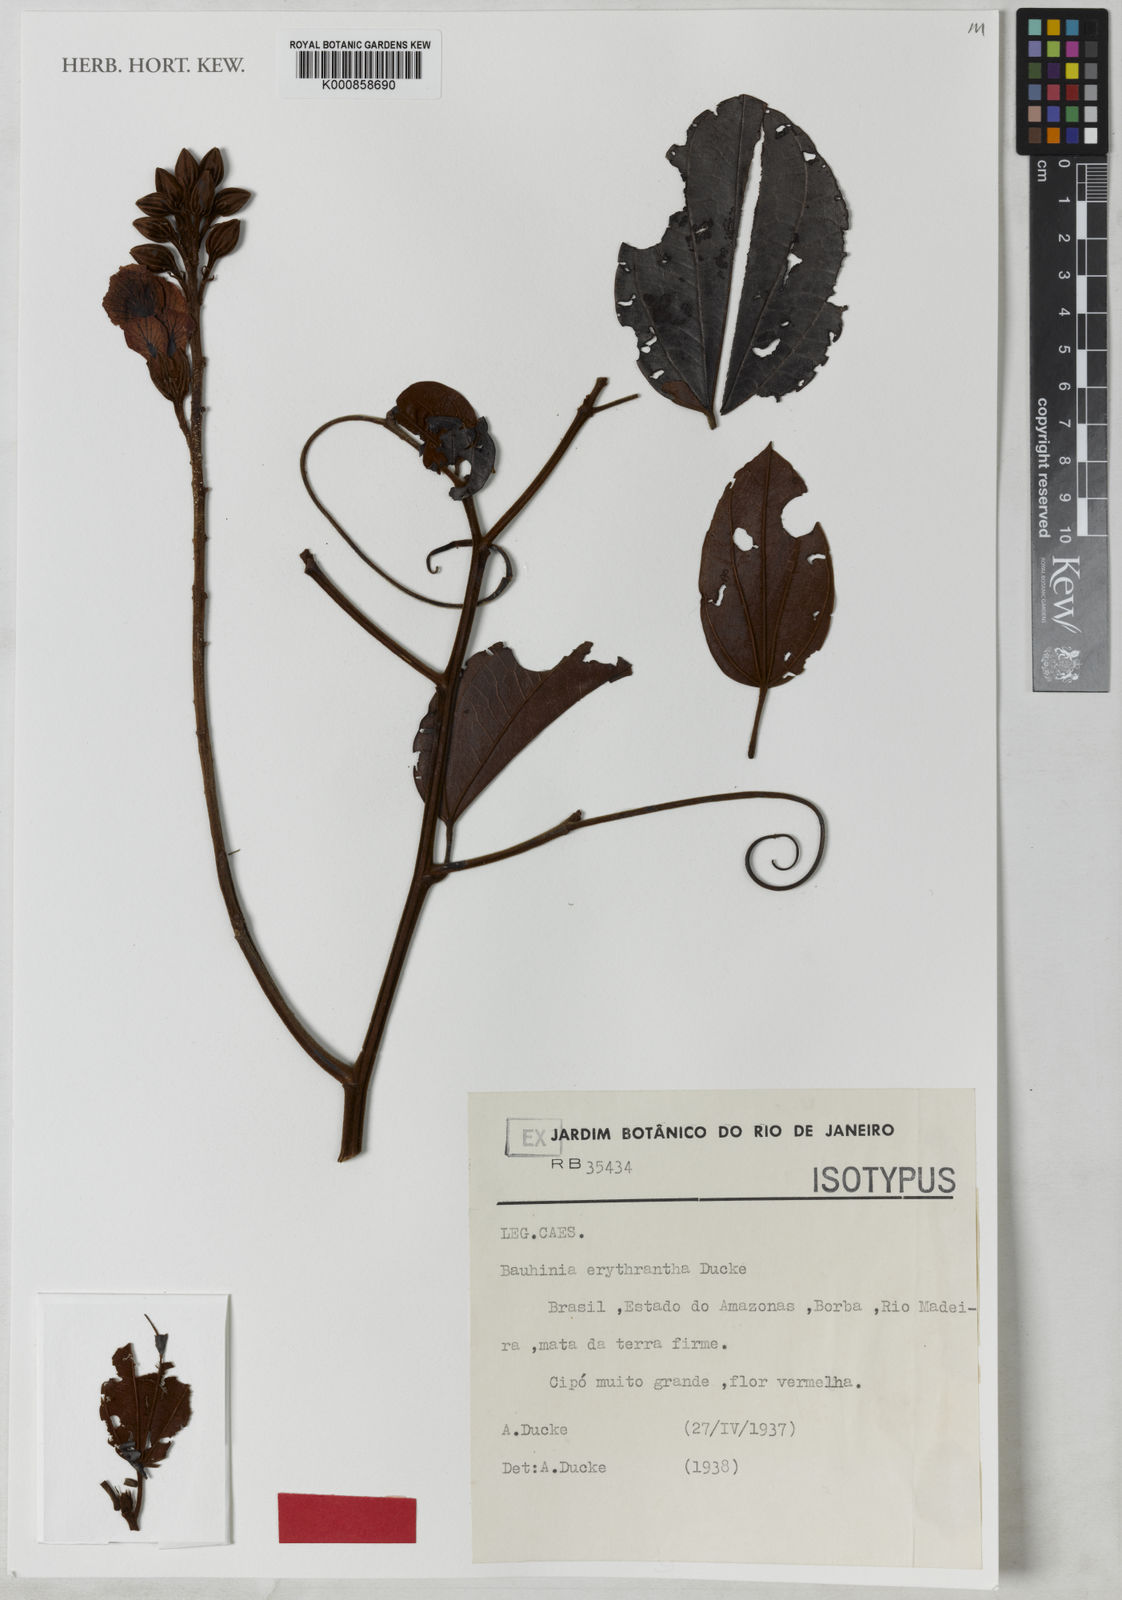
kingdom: Plantae
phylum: Tracheophyta
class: Magnoliopsida
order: Fabales
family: Fabaceae
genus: Schnella
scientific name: Schnella erythrantha
